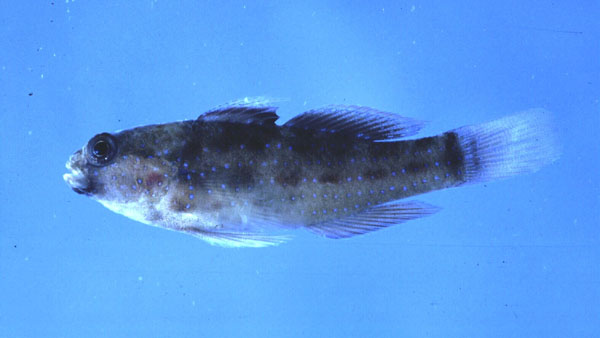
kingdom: Animalia
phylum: Chordata
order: Perciformes
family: Gobiidae
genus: Asterropteryx
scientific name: Asterropteryx semipunctata
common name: Starry goby
